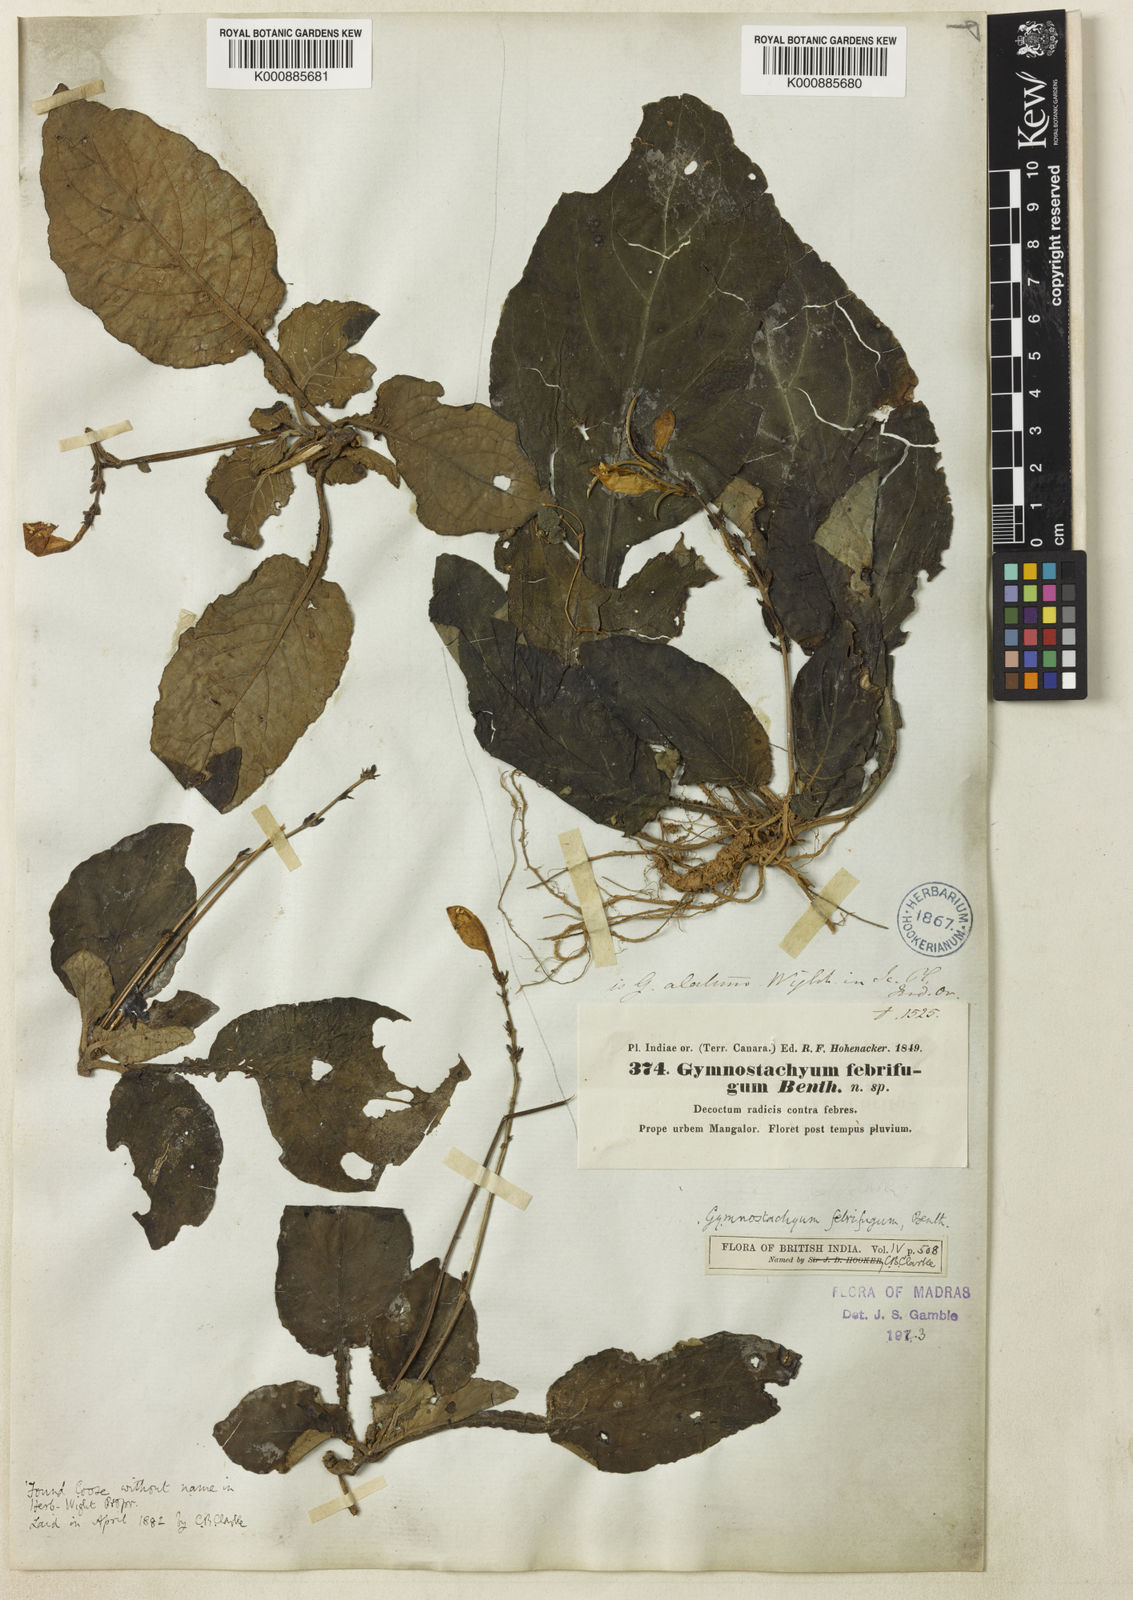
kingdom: Plantae
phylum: Tracheophyta
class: Magnoliopsida
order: Lamiales
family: Acanthaceae
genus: Gymnostachyum
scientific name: Gymnostachyum febrifugum
